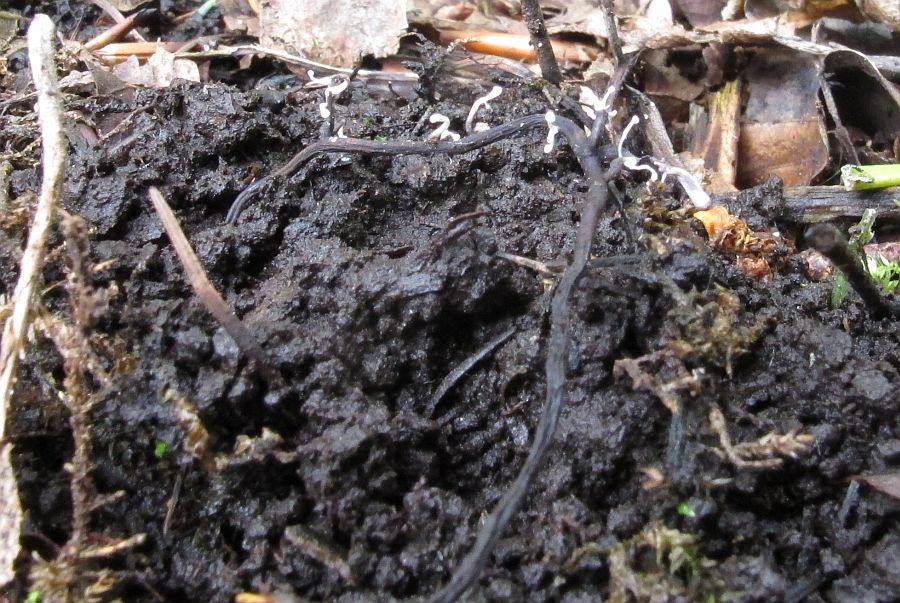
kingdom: Fungi
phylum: Ascomycota
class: Sordariomycetes
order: Hypocreales
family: Ophiocordycipitaceae
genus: Polycephalomyces
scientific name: Polycephalomyces ramosus
